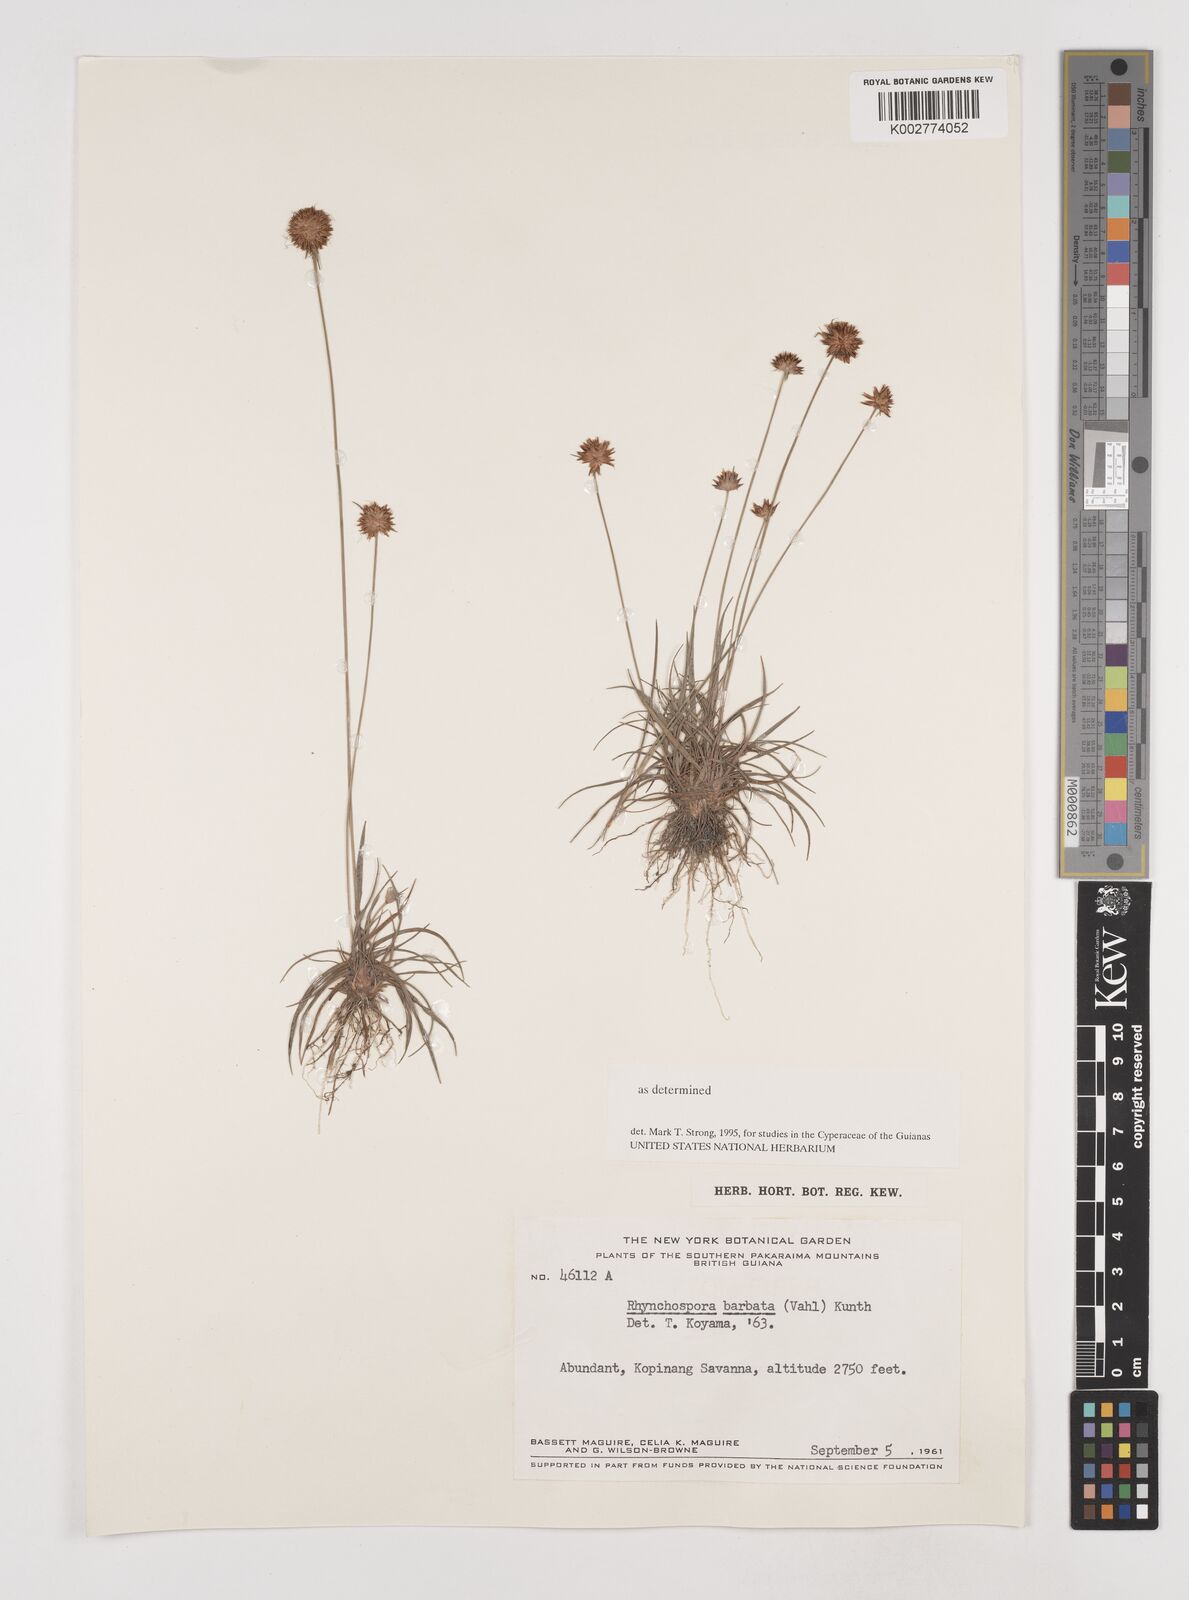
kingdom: Plantae
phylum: Tracheophyta
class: Liliopsida
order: Poales
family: Cyperaceae
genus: Rhynchospora
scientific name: Rhynchospora barbata
